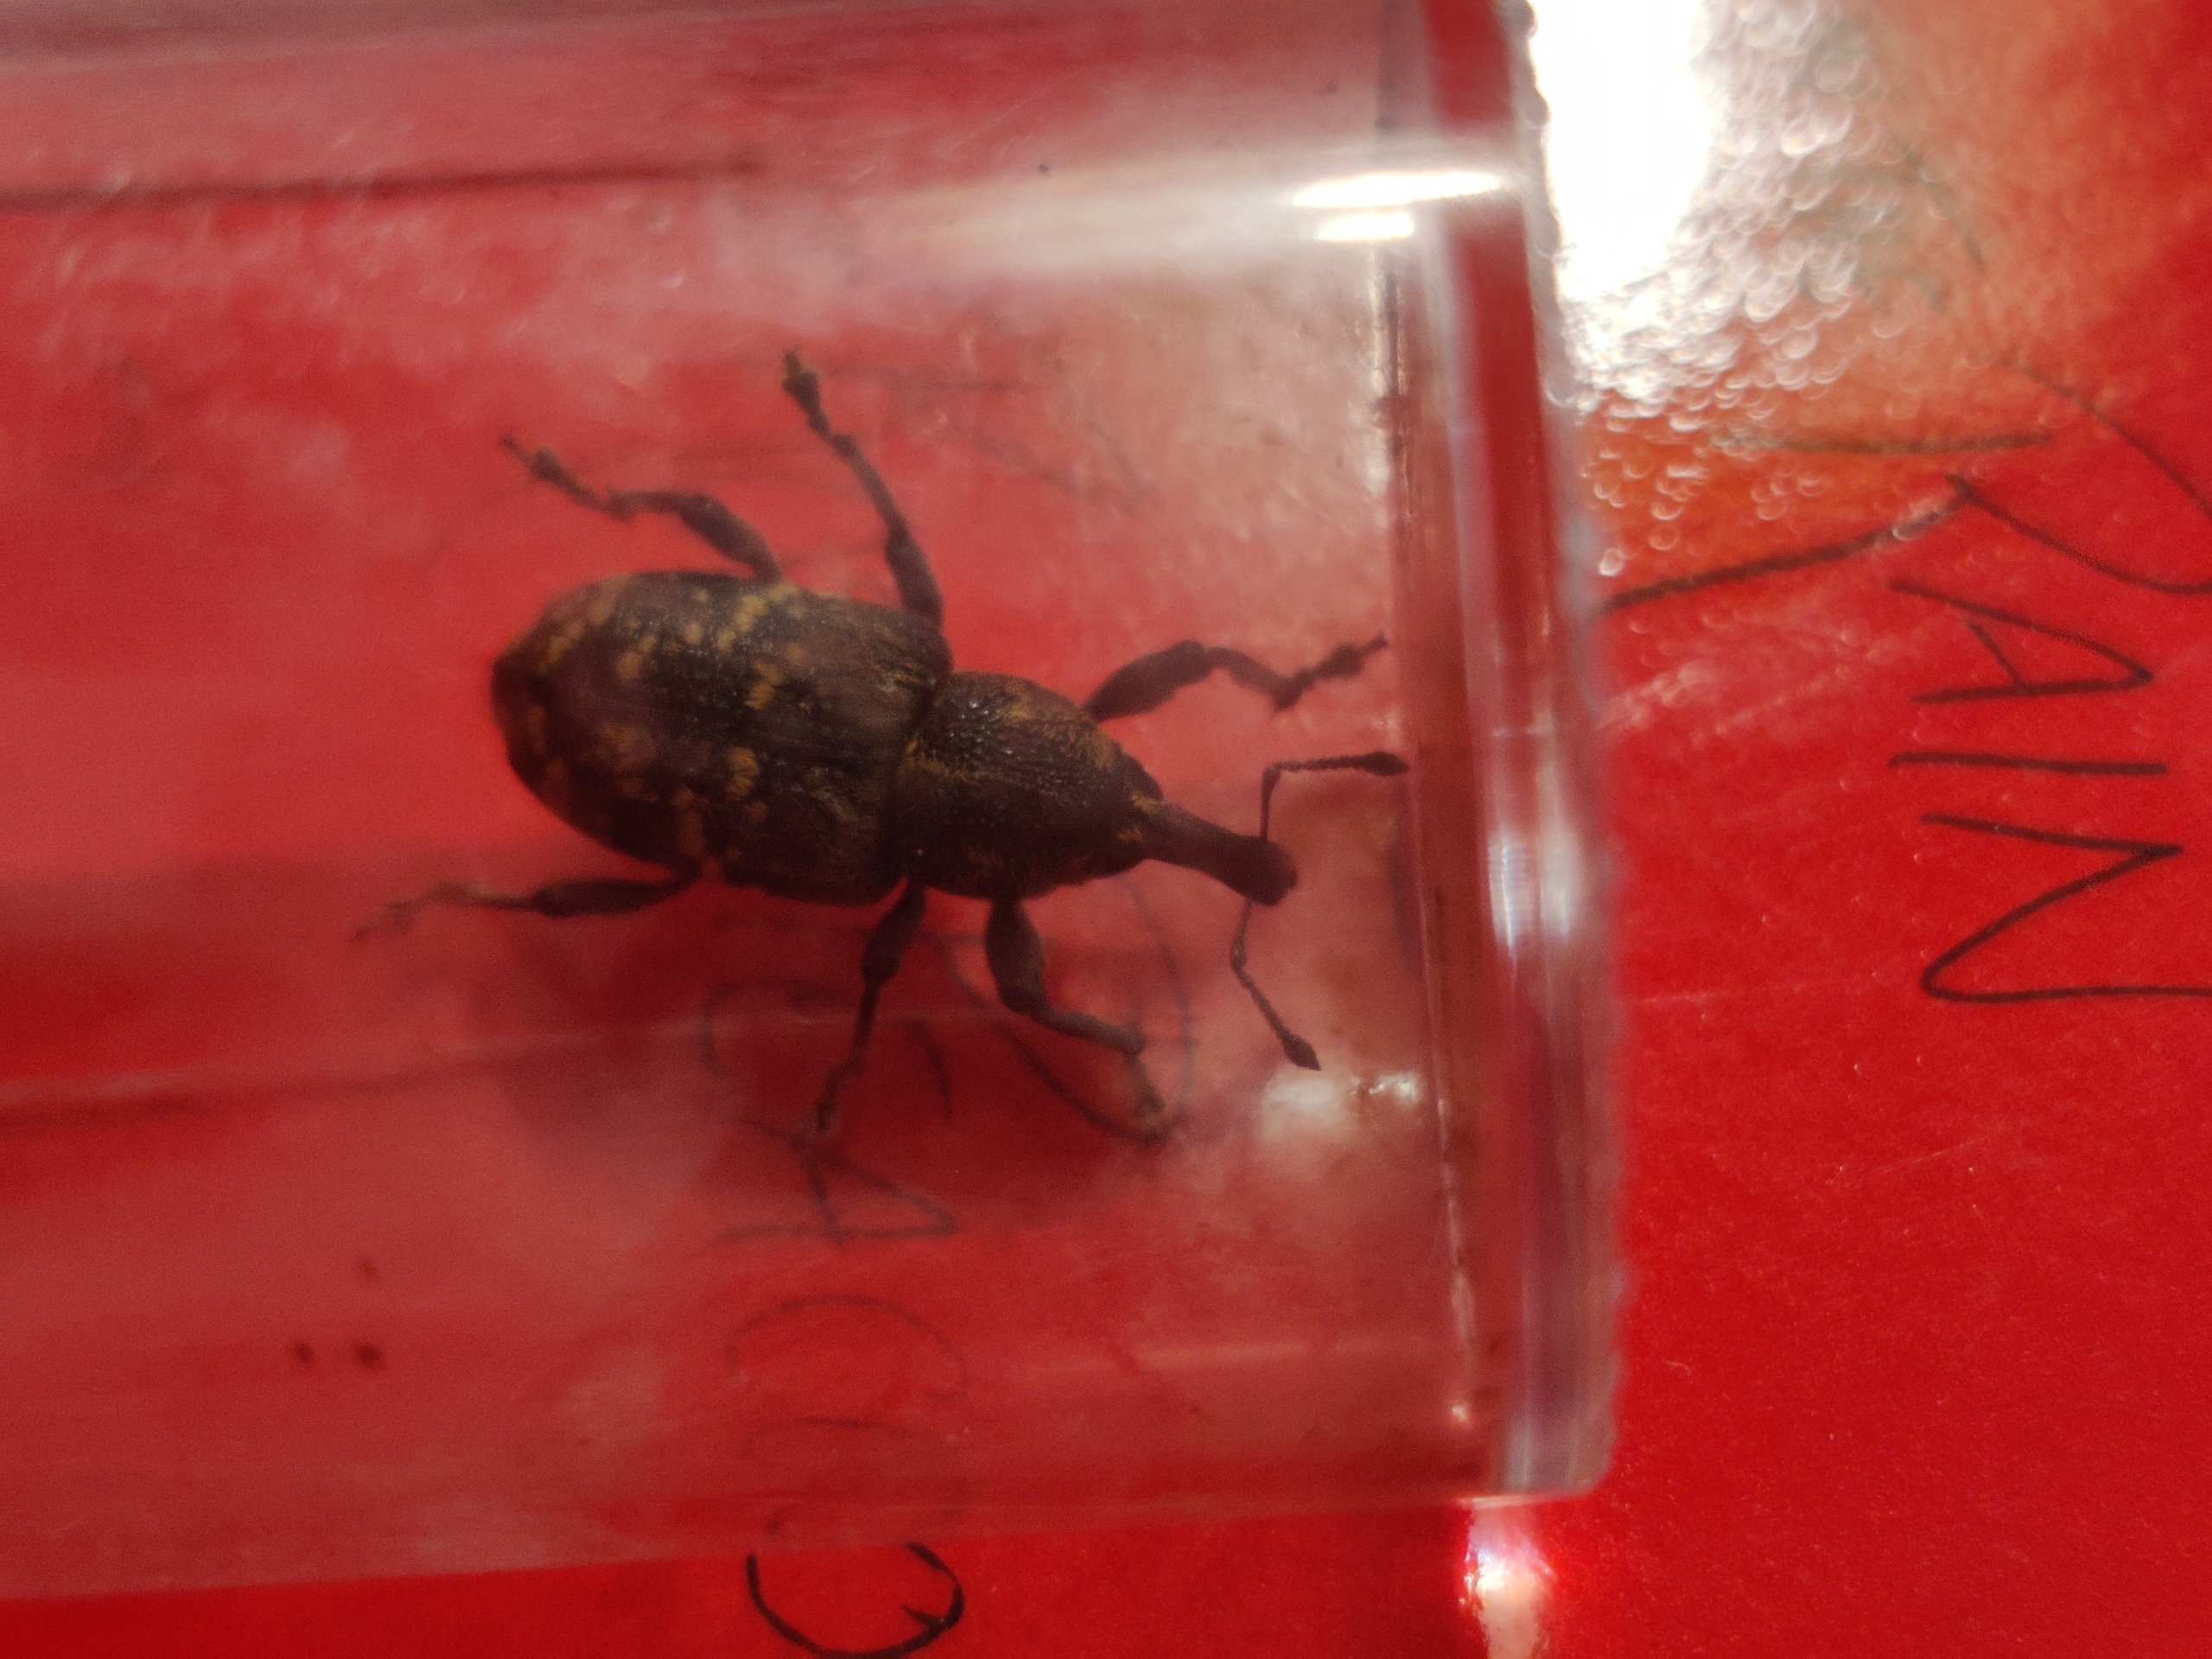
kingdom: Animalia
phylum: Arthropoda
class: Insecta
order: Coleoptera
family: Curculionidae
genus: Hylobius
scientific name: Hylobius abietis
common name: Stor nåletræsnudebille
